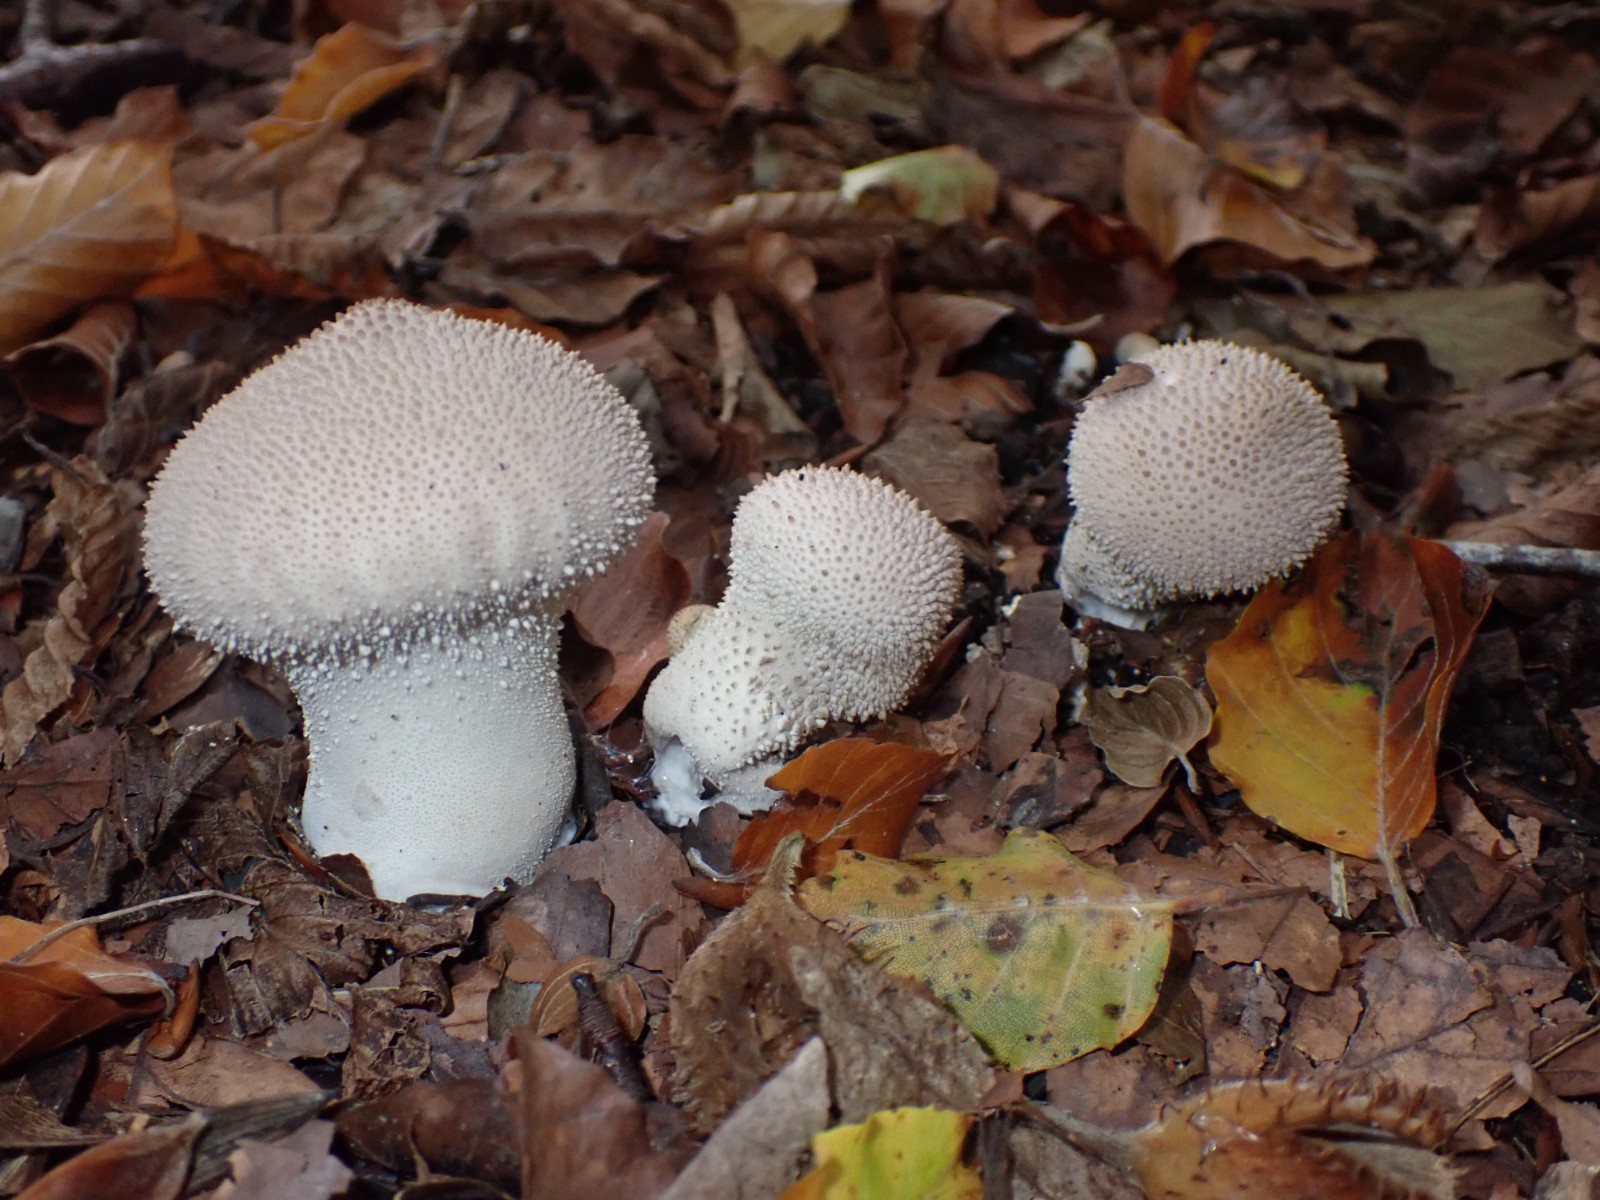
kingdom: Fungi
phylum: Basidiomycota
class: Agaricomycetes
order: Agaricales
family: Lycoperdaceae
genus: Lycoperdon
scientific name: Lycoperdon perlatum
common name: krystal-støvbold
